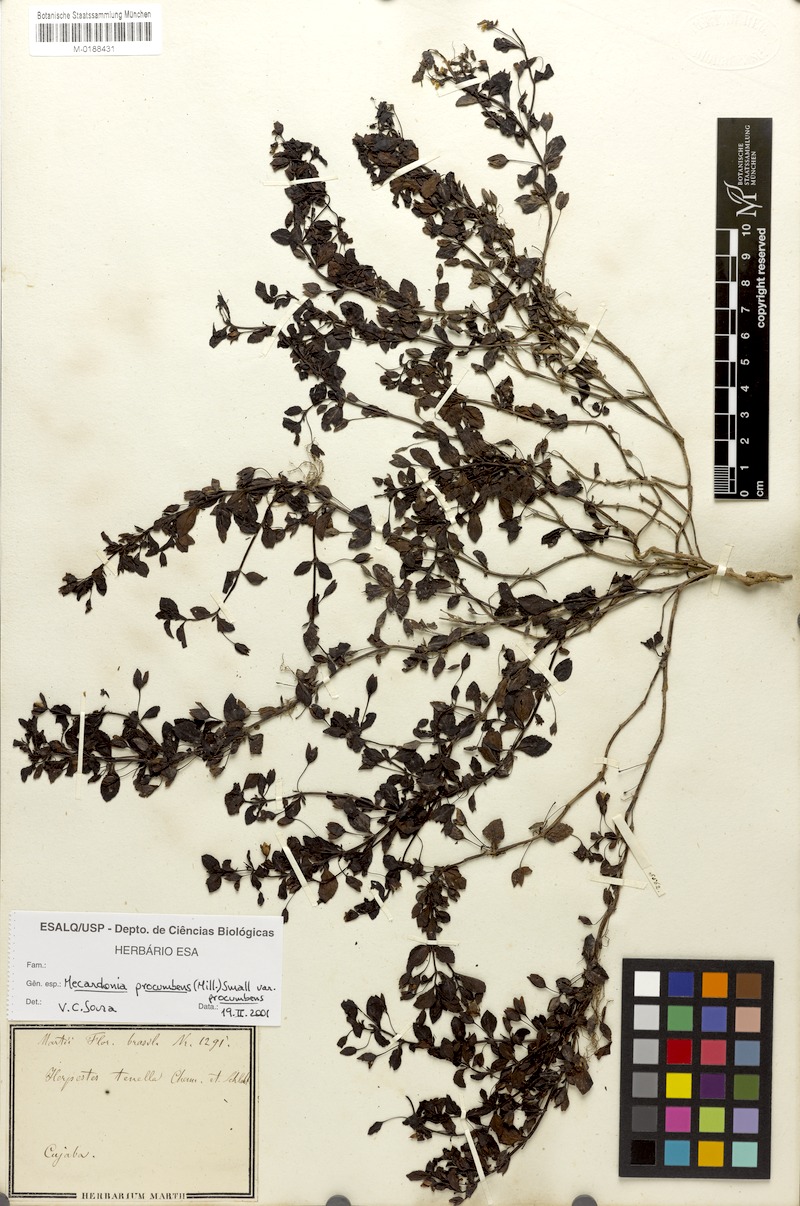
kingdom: Plantae
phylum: Tracheophyta
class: Magnoliopsida
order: Lamiales
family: Plantaginaceae
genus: Mecardonia
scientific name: Mecardonia procumbens
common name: Baby jump-up
